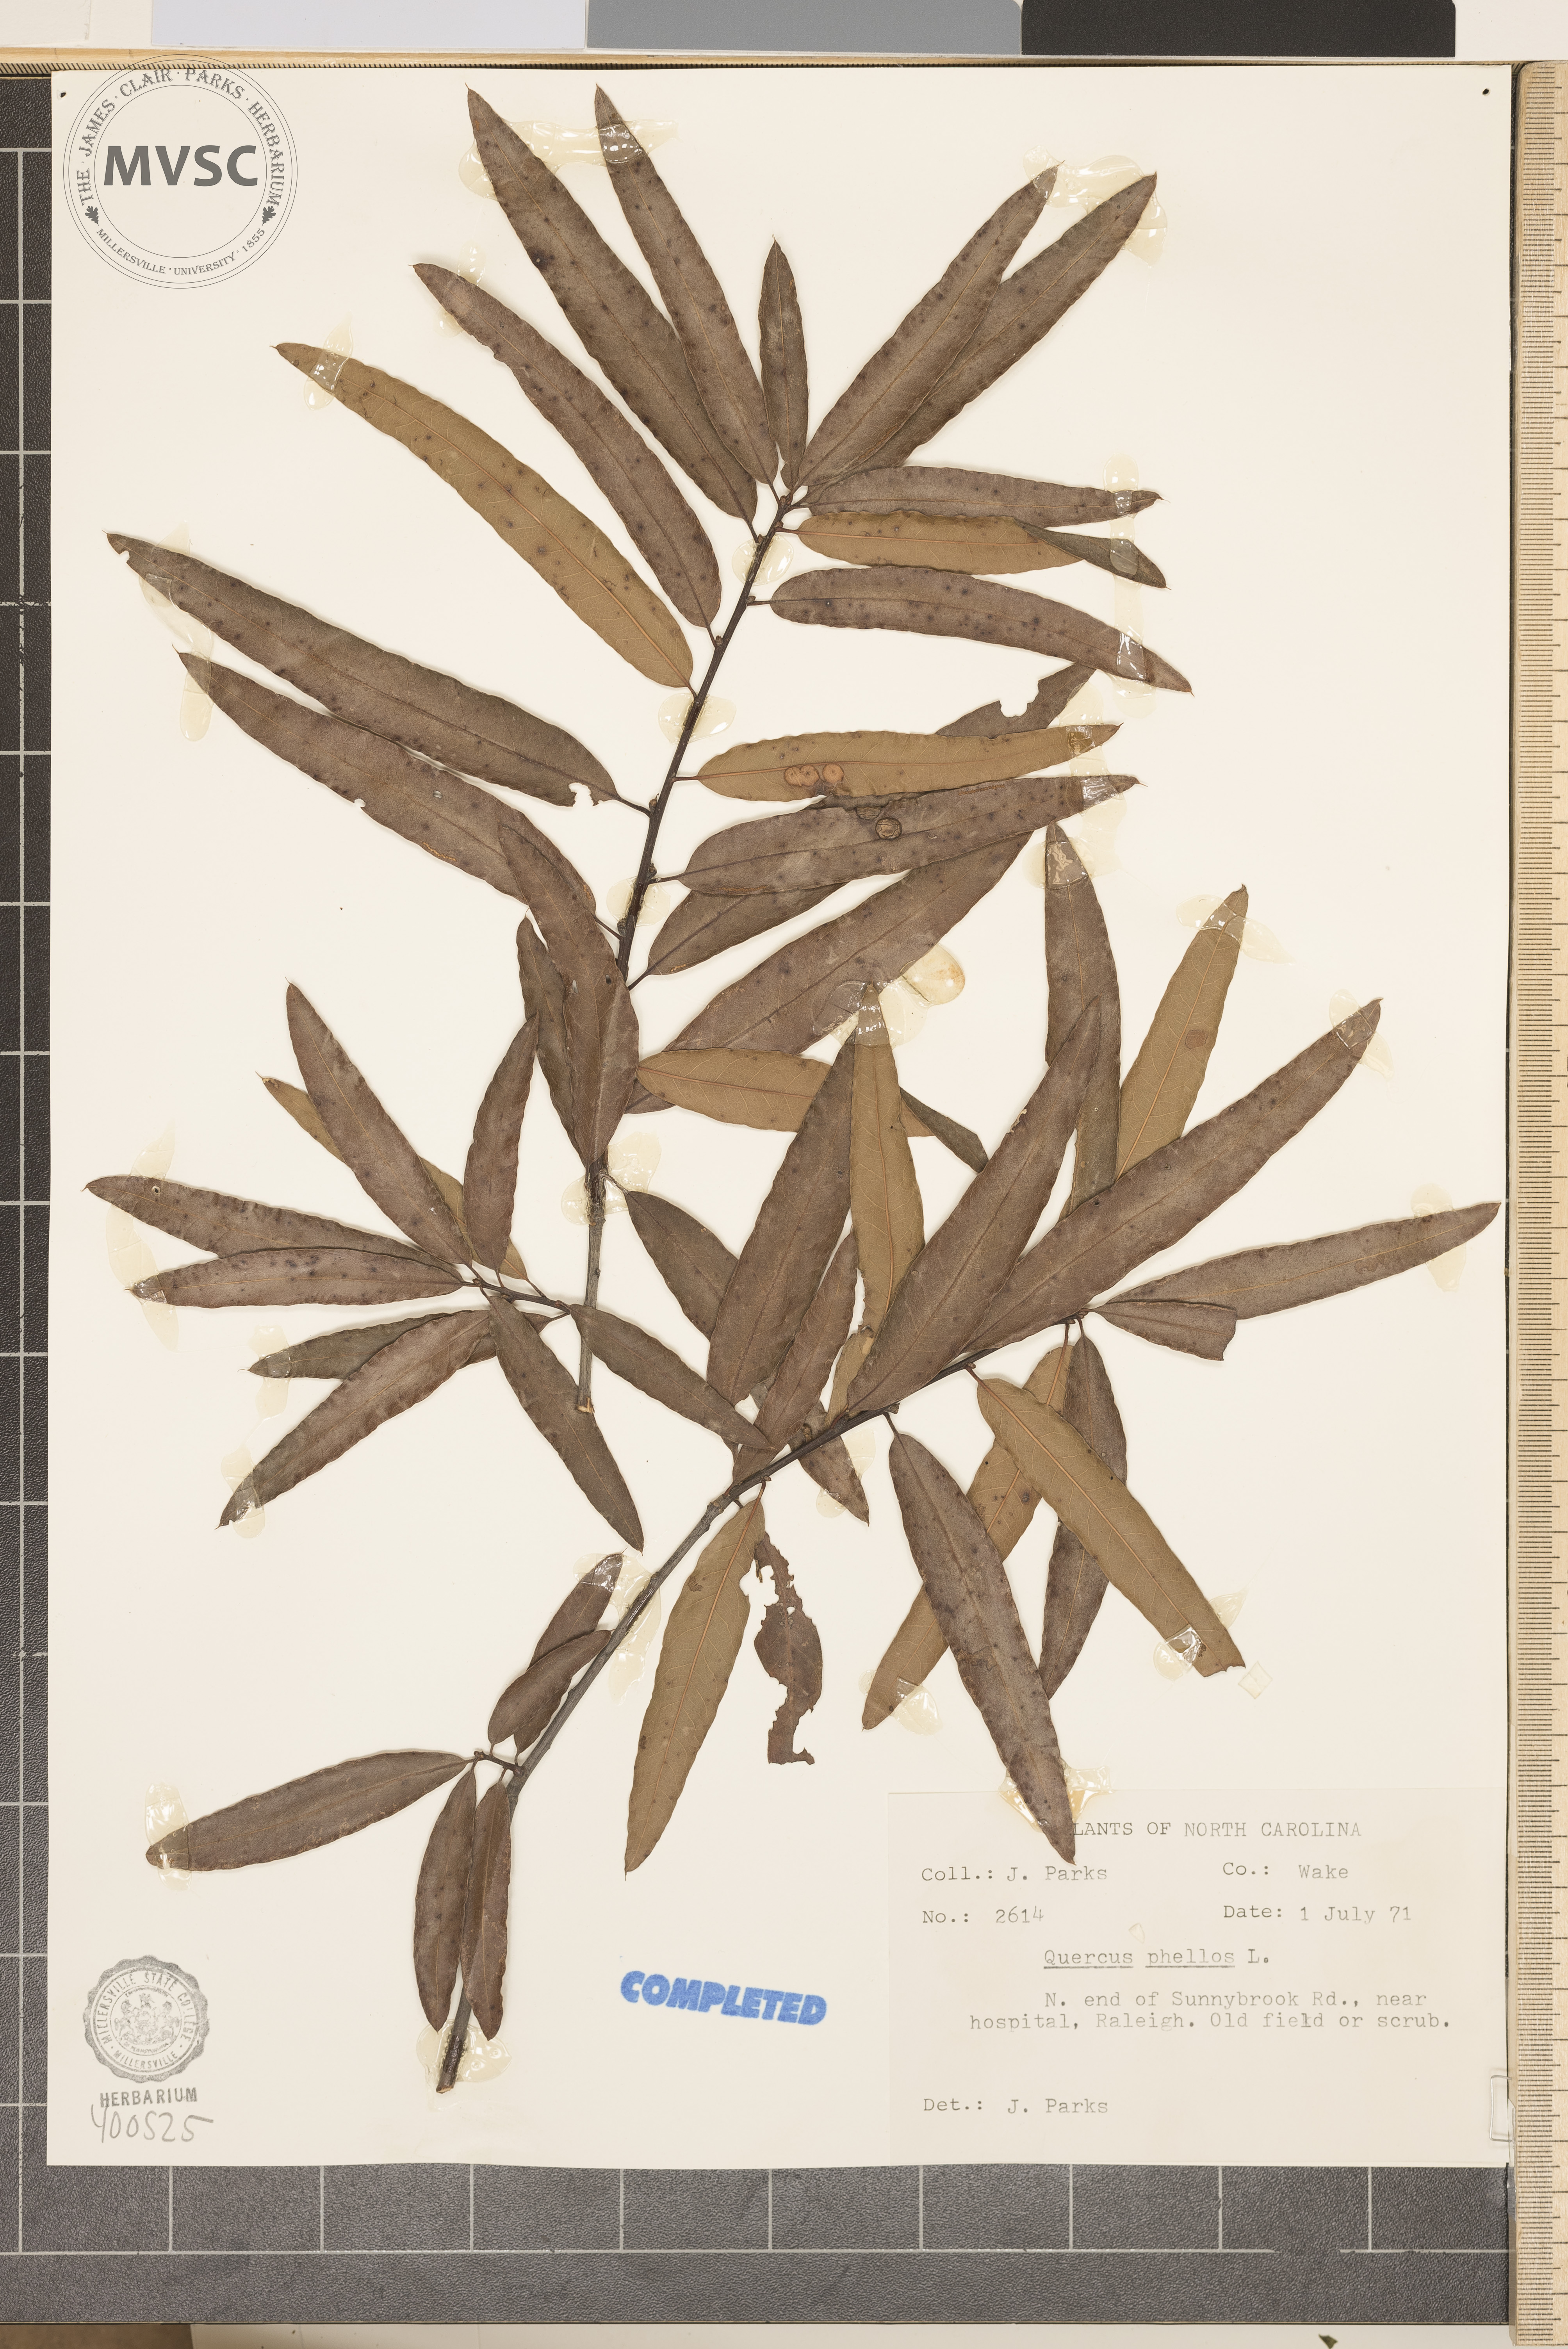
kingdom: Plantae
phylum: Tracheophyta
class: Magnoliopsida
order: Fagales
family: Fagaceae
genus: Quercus
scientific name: Quercus phellos
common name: willow oak
